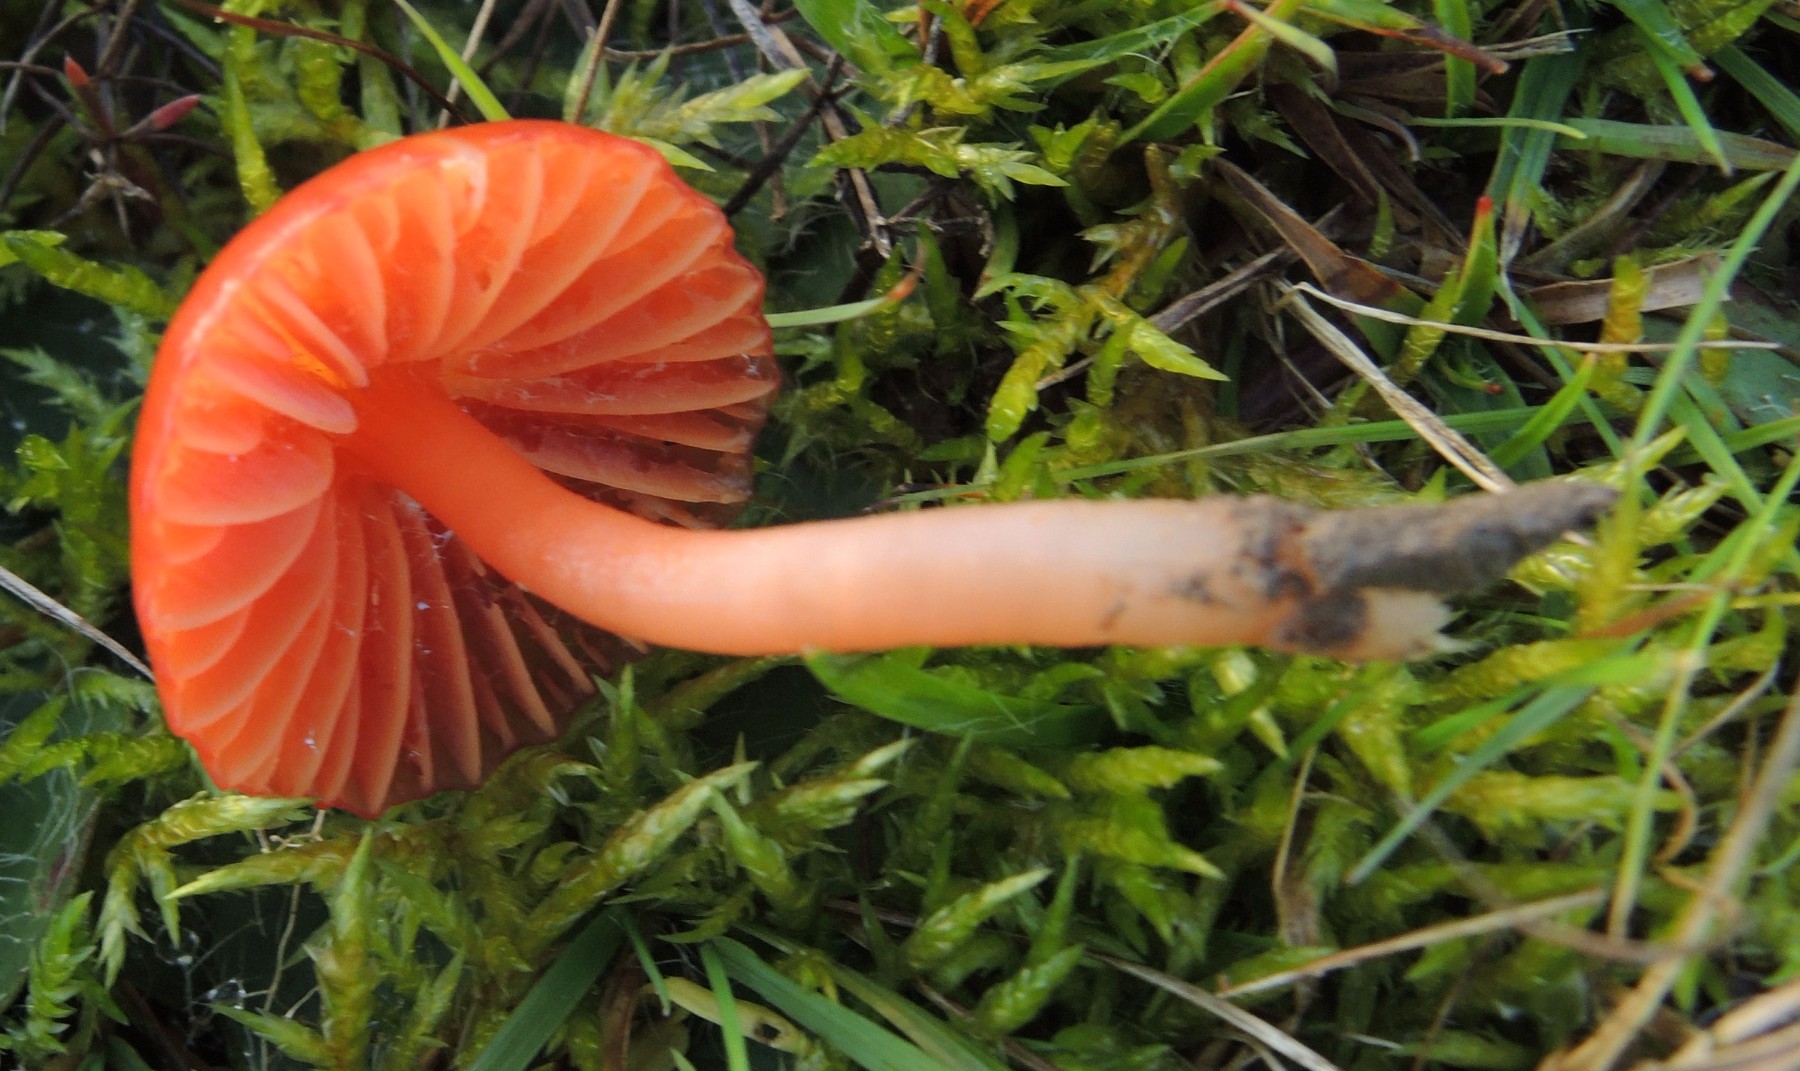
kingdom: Fungi
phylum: Basidiomycota
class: Agaricomycetes
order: Agaricales
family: Hygrophoraceae
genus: Gliophorus
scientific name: Gliophorus europerplexus
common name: Butterscotch waxcap
